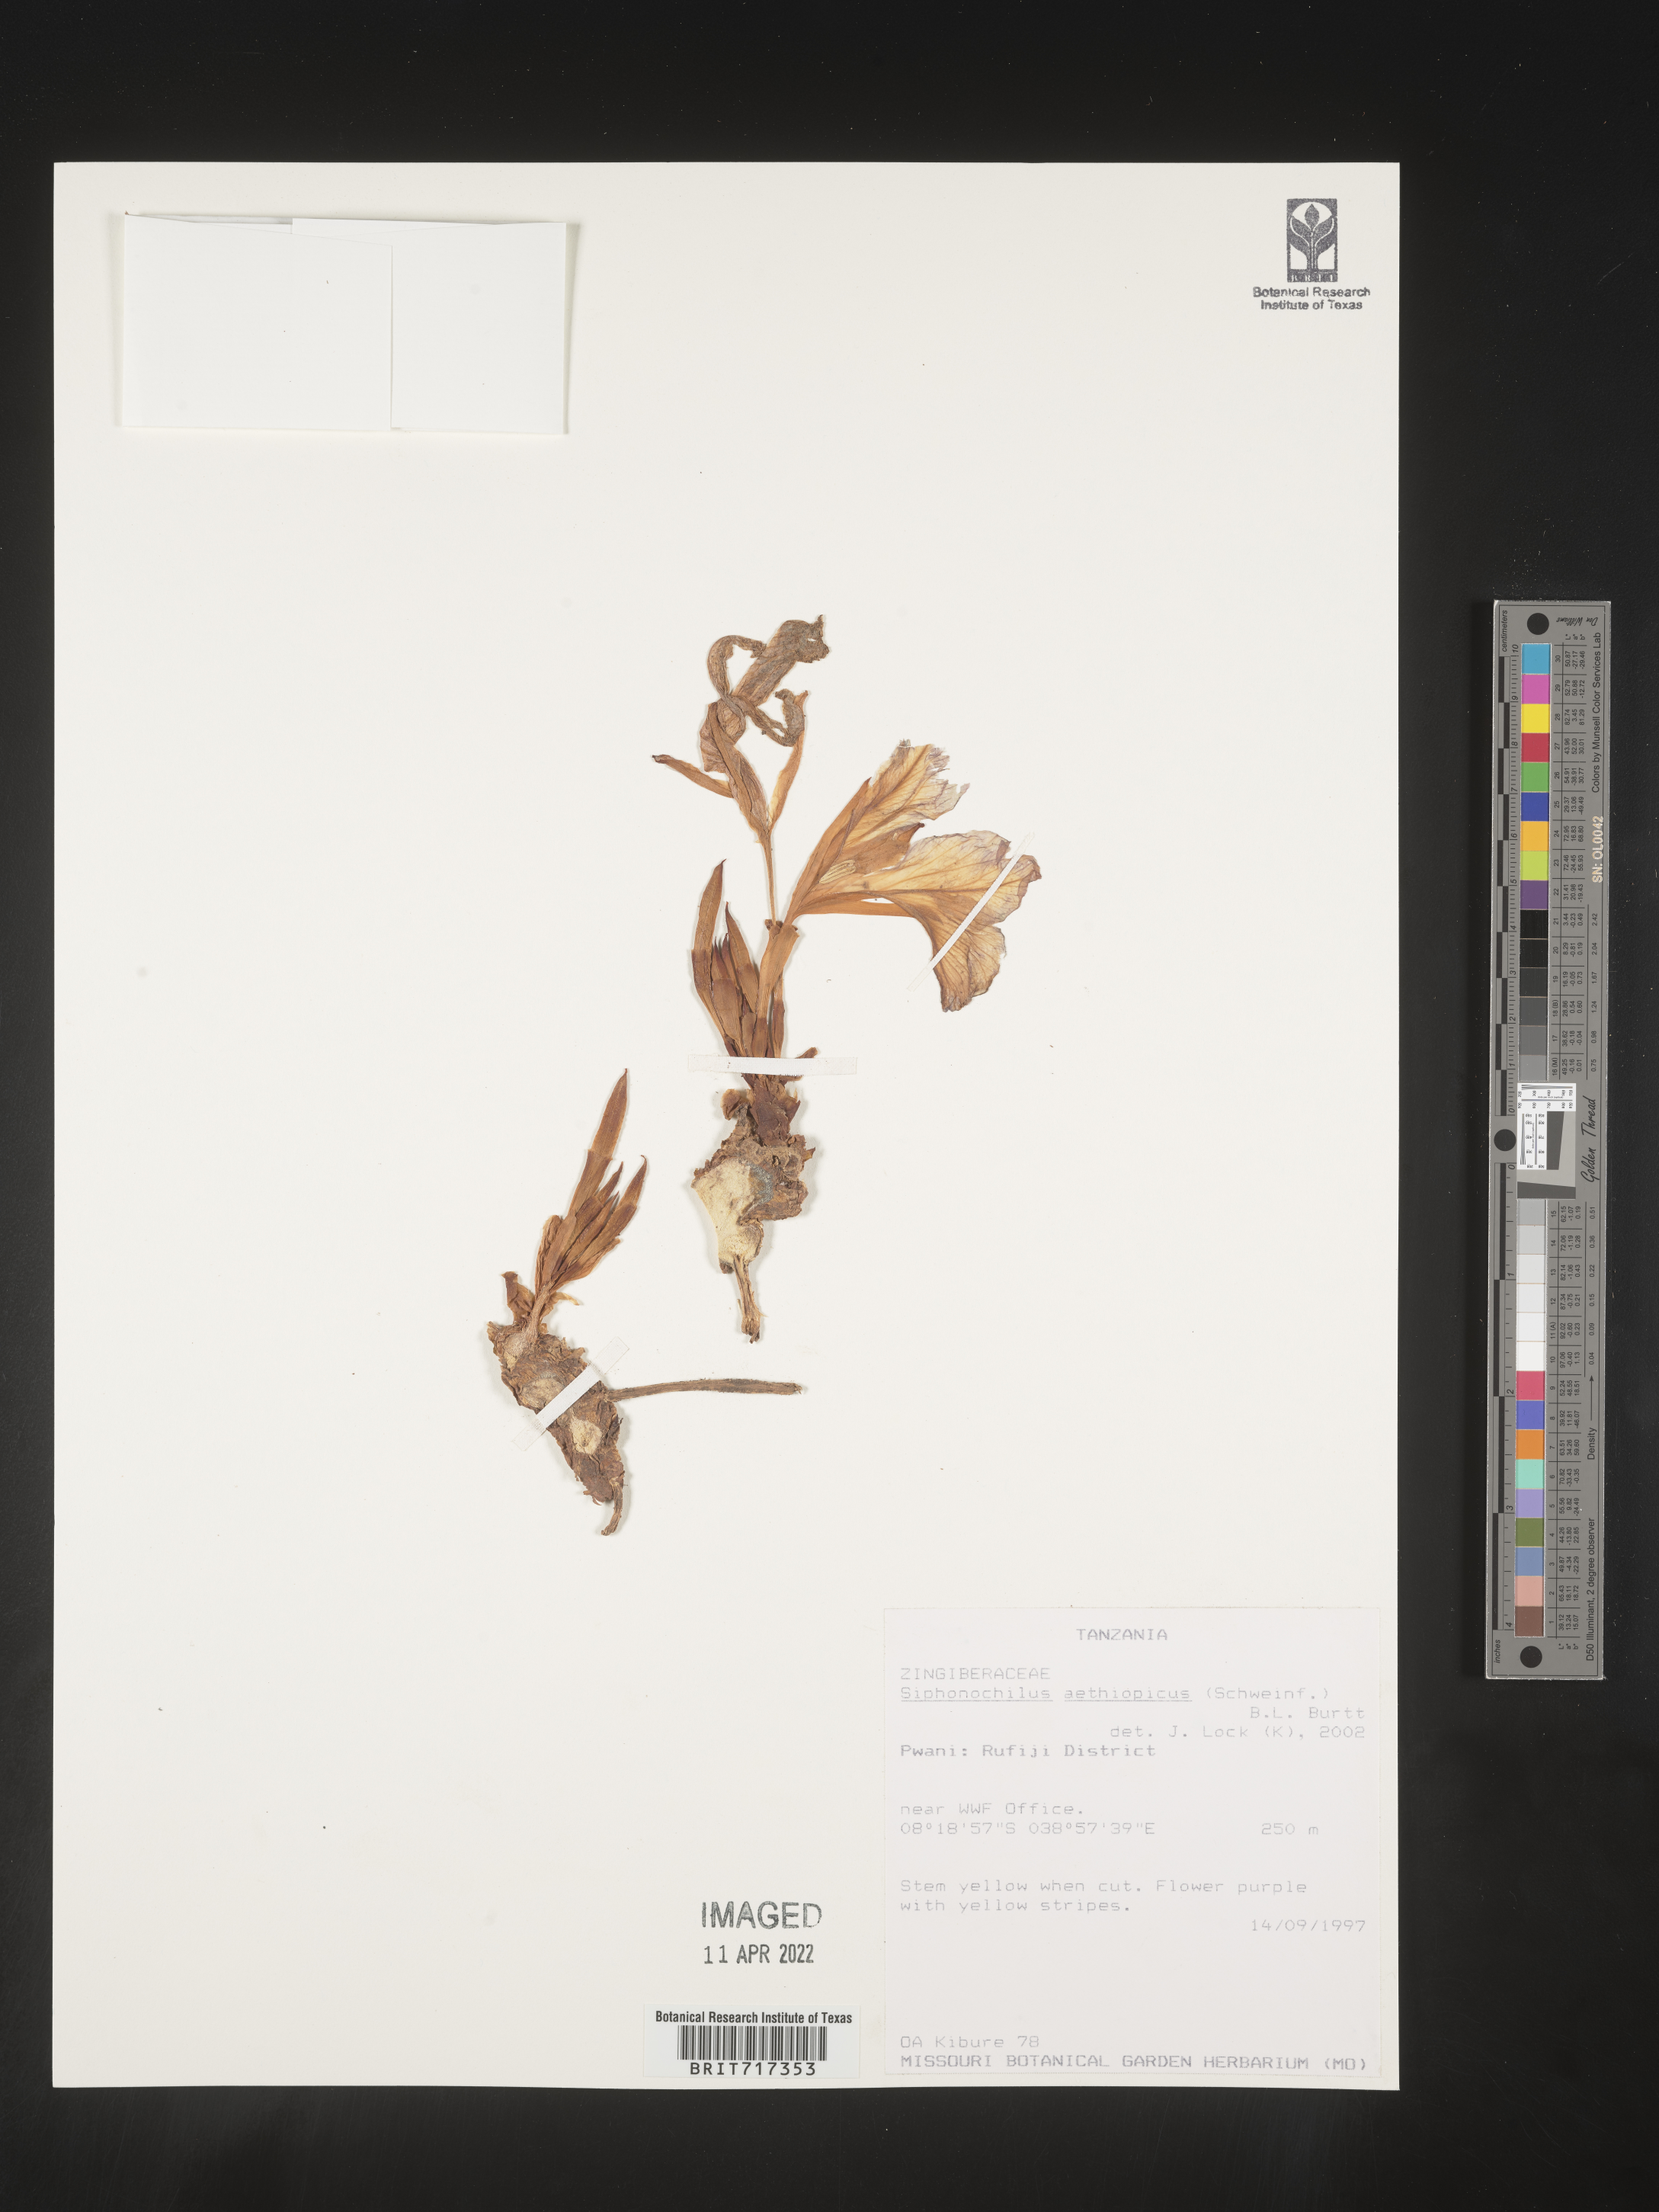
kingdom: Plantae
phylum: Tracheophyta
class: Liliopsida
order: Zingiberales
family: Zingiberaceae
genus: Siphonochilus
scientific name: Siphonochilus
